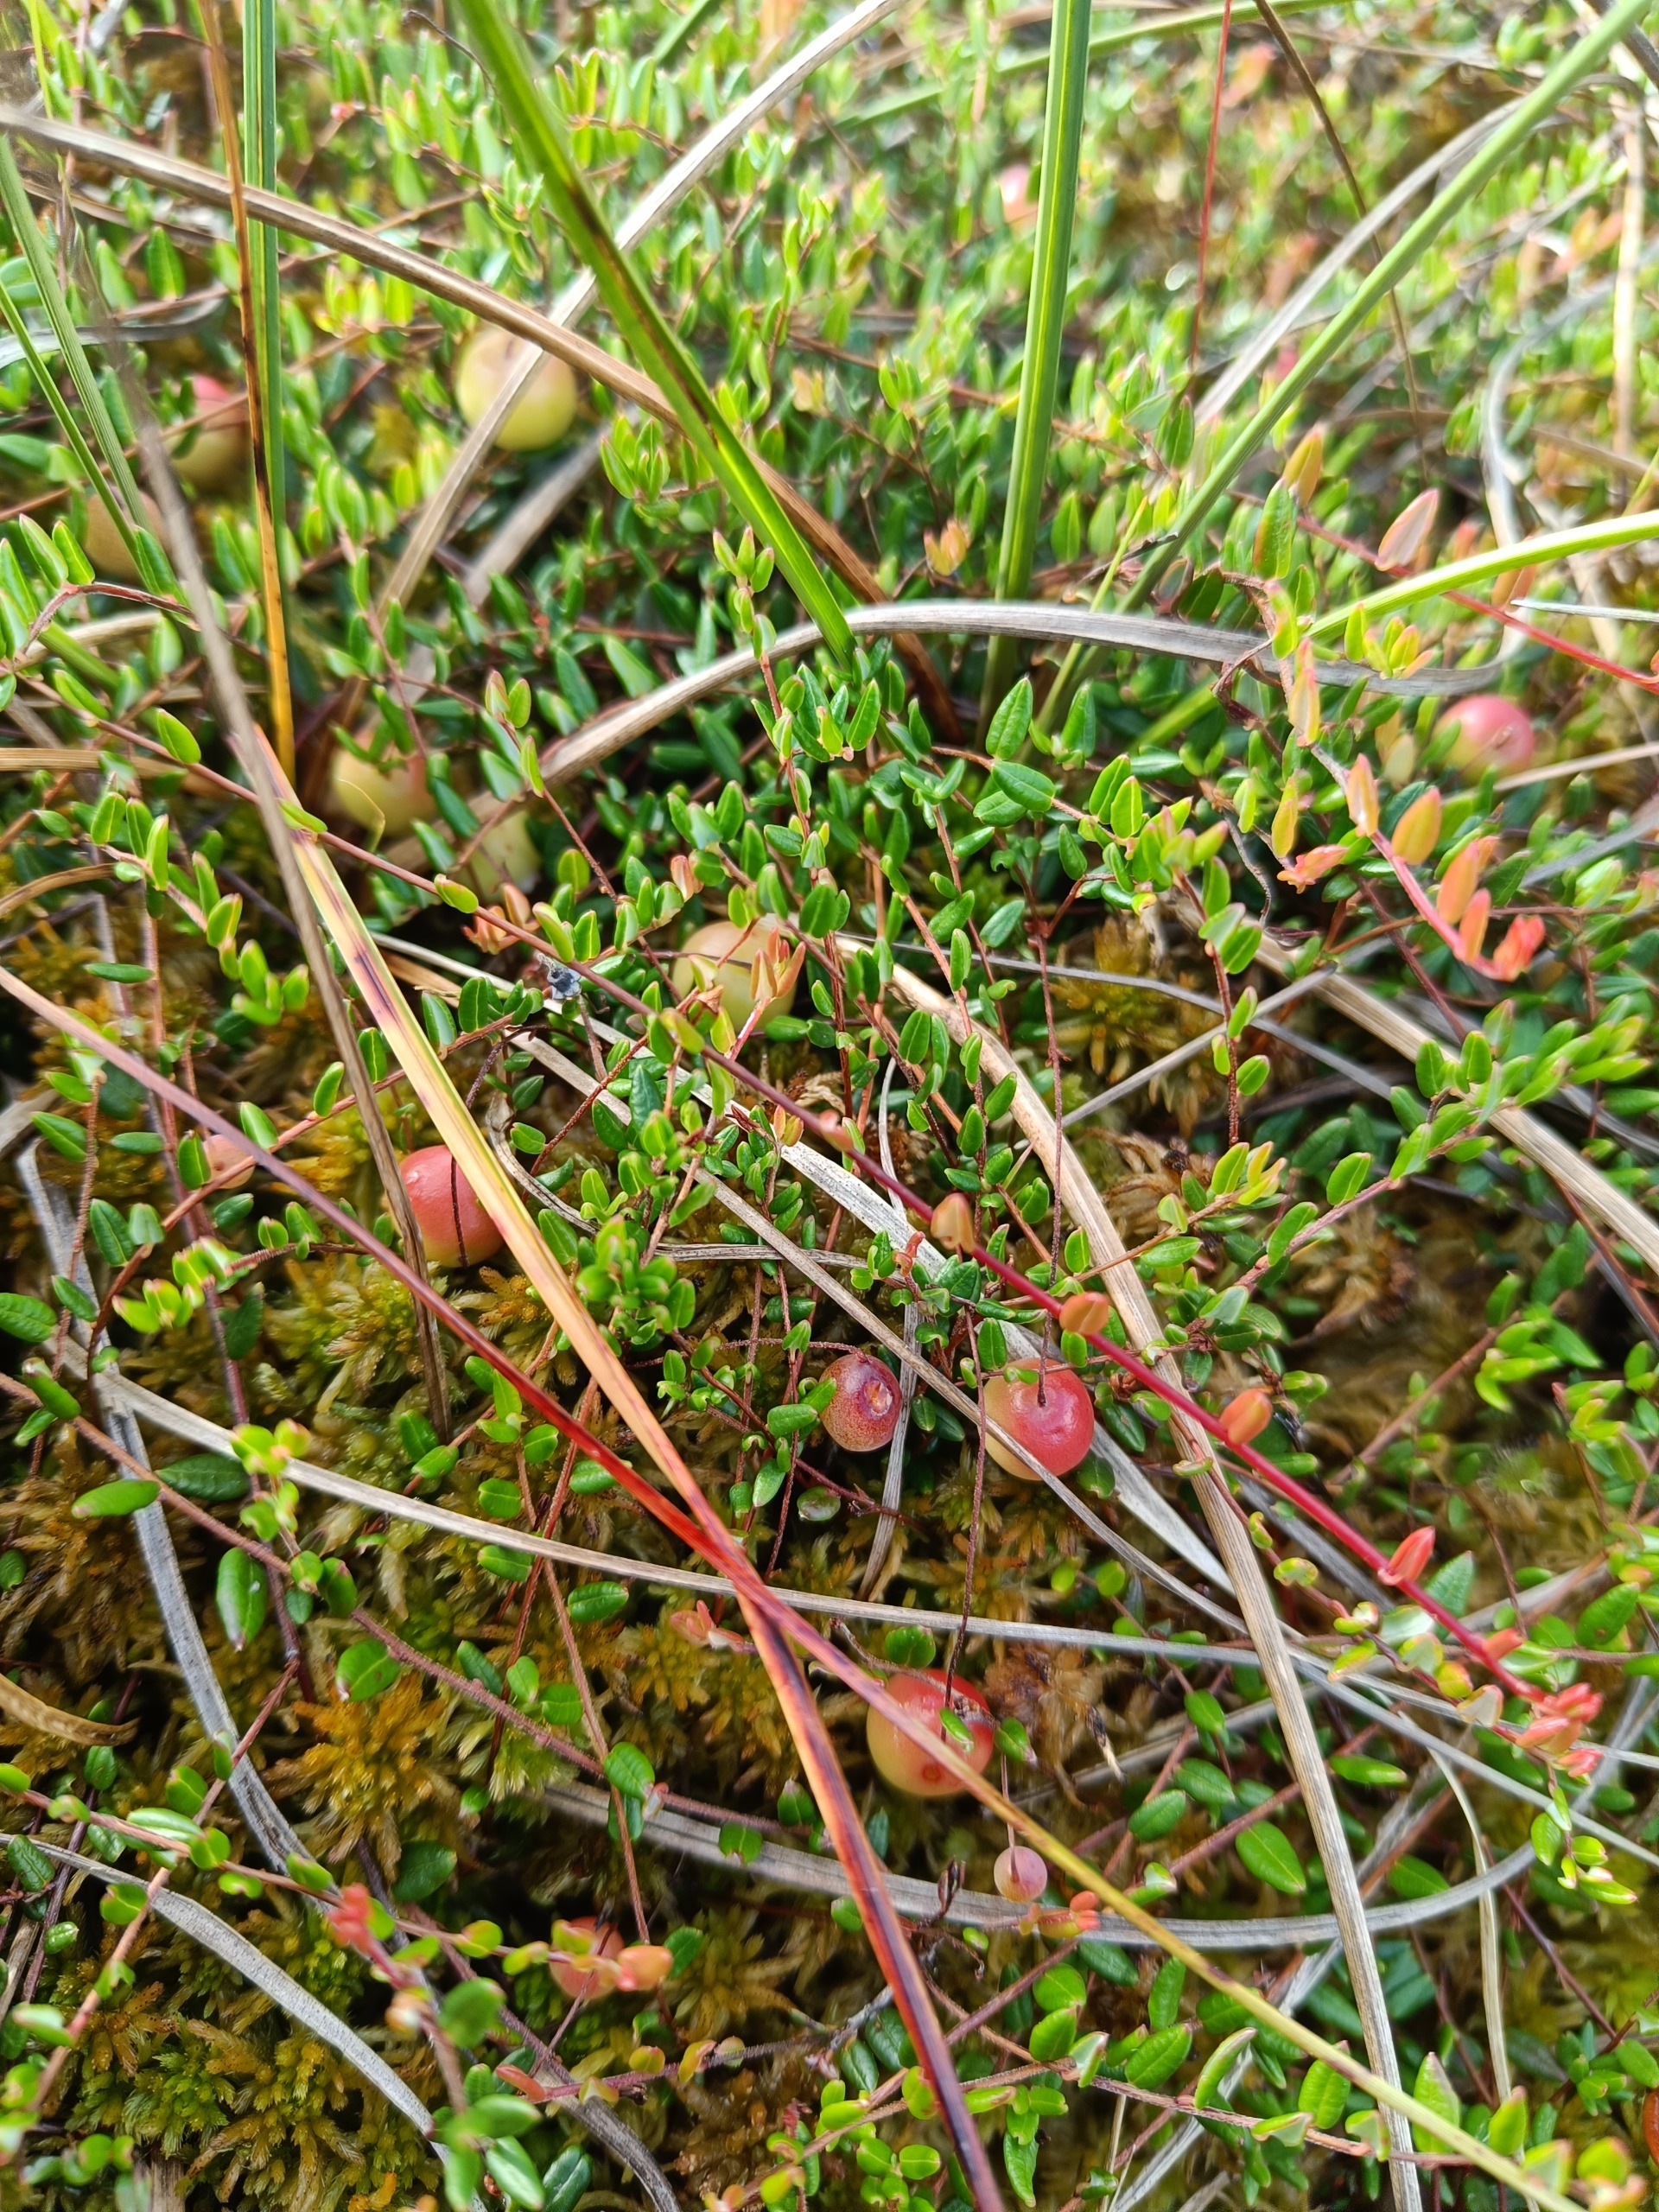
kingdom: Plantae
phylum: Tracheophyta
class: Magnoliopsida
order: Ericales
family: Ericaceae
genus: Vaccinium
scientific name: Vaccinium oxycoccos
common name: Tranebær
